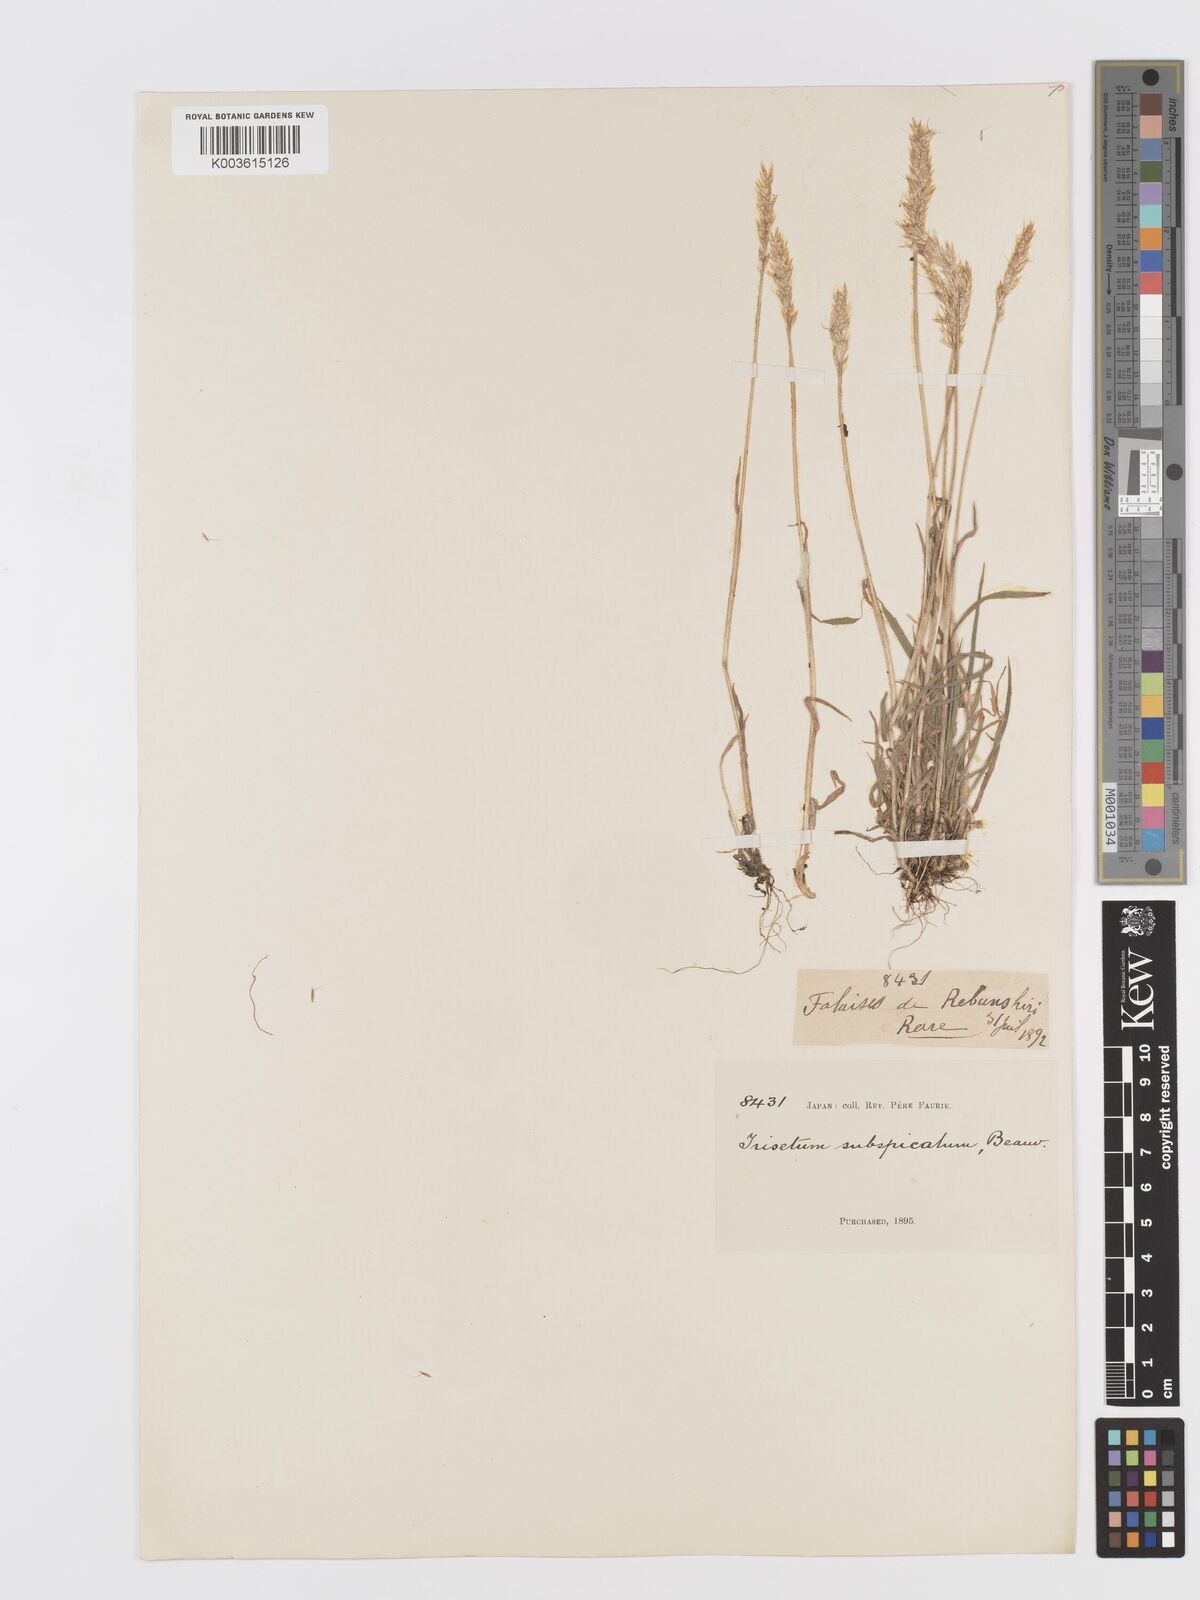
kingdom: Plantae
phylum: Tracheophyta
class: Liliopsida
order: Poales
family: Poaceae
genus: Koeleria
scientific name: Koeleria spicata
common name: Mountain trisetum
